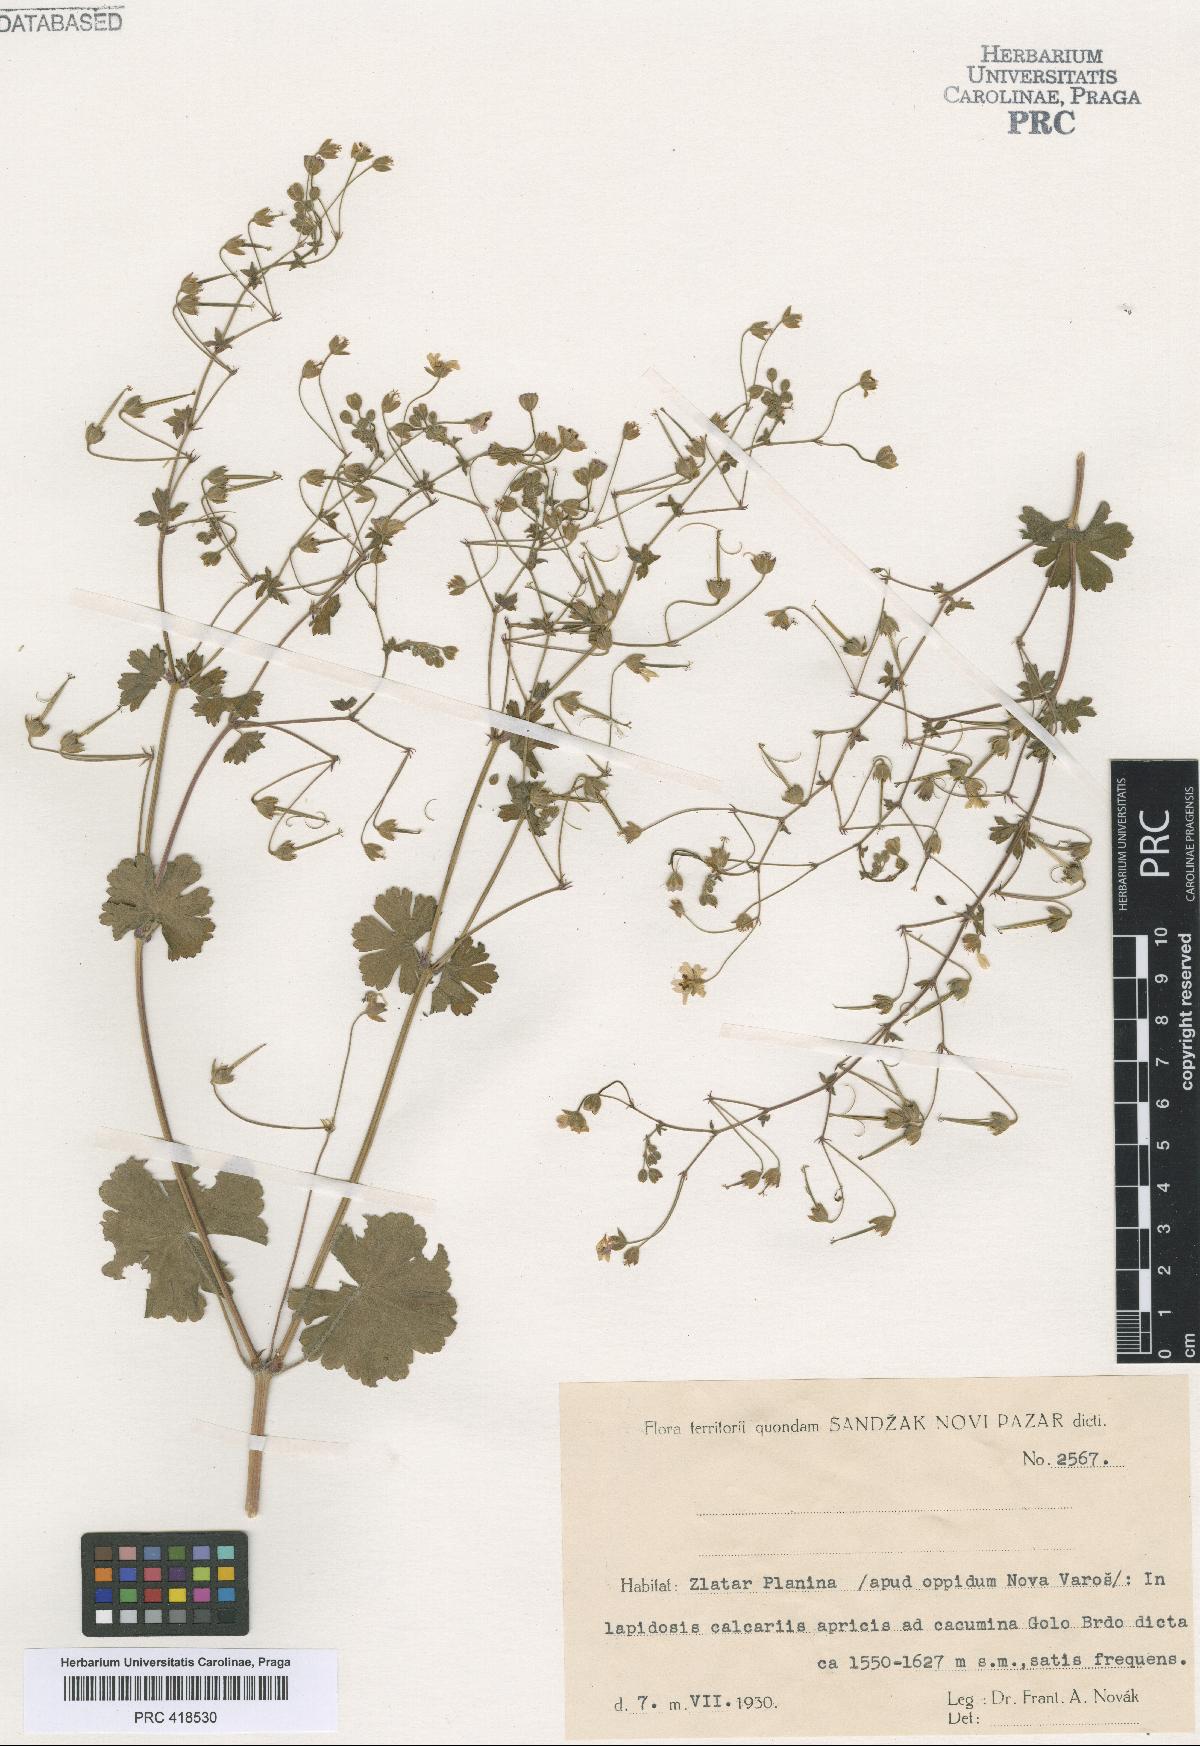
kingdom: Plantae
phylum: Tracheophyta
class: Magnoliopsida
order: Geraniales
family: Geraniaceae
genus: Geranium
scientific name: Geranium pyrenaicum
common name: Hedgerow crane's-bill
